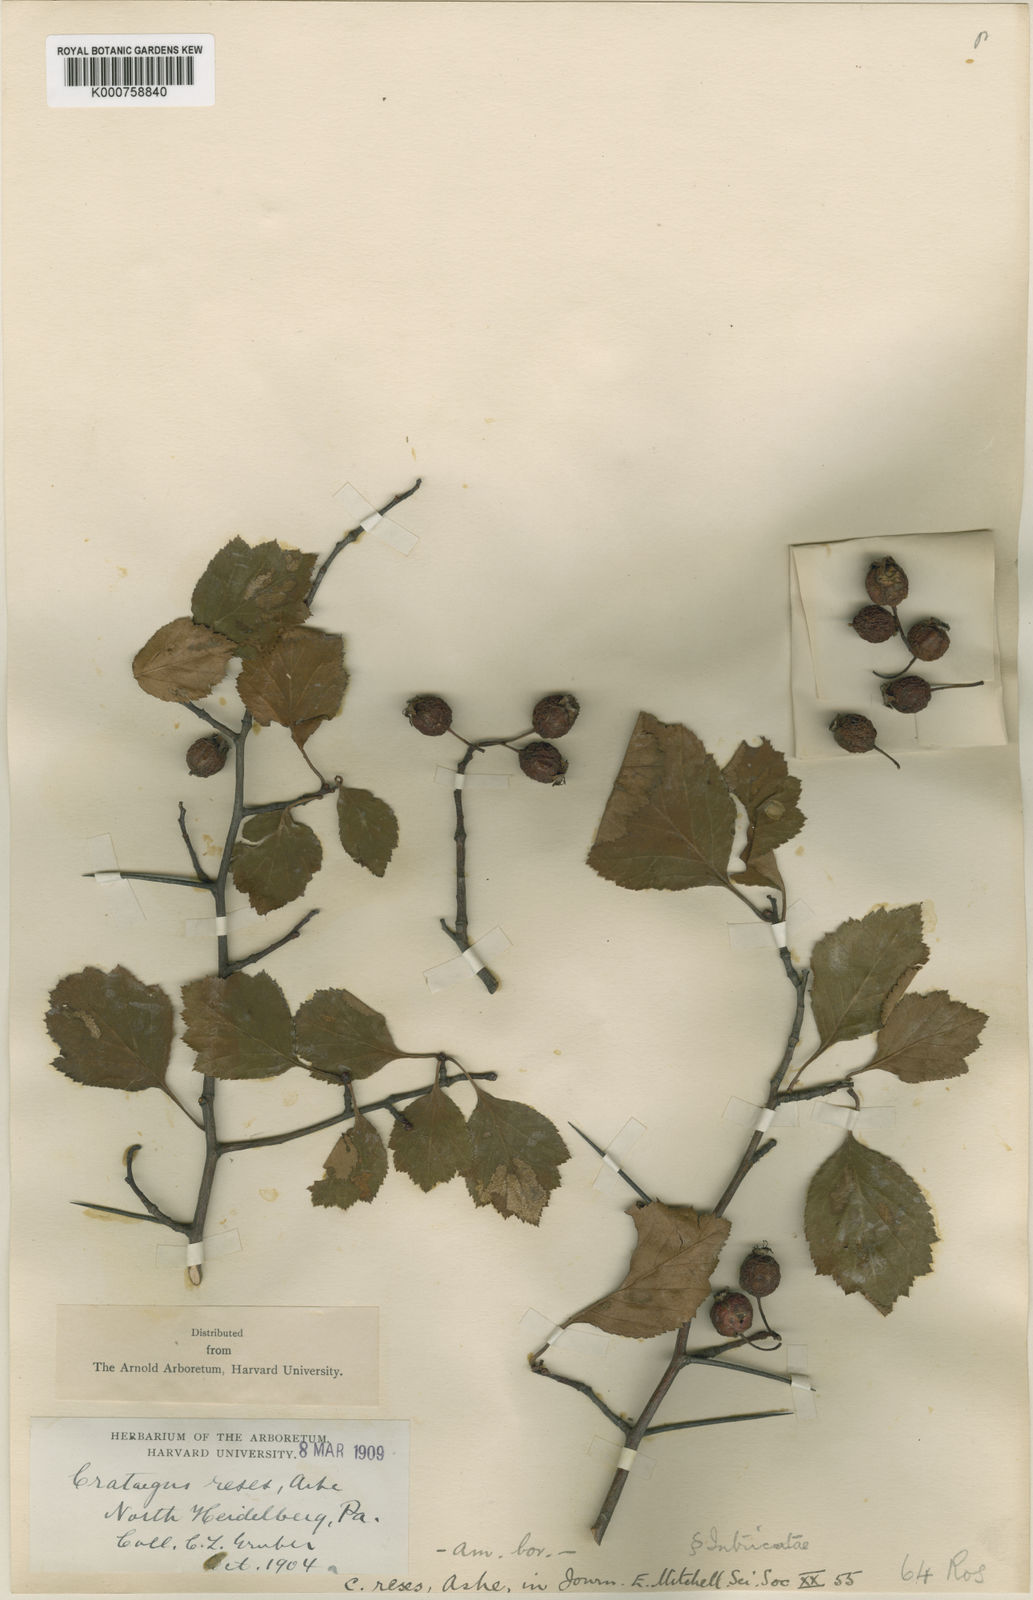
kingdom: Plantae
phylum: Tracheophyta
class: Magnoliopsida
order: Rosales
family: Rosaceae
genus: Crataegus
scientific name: Crataegus reses
